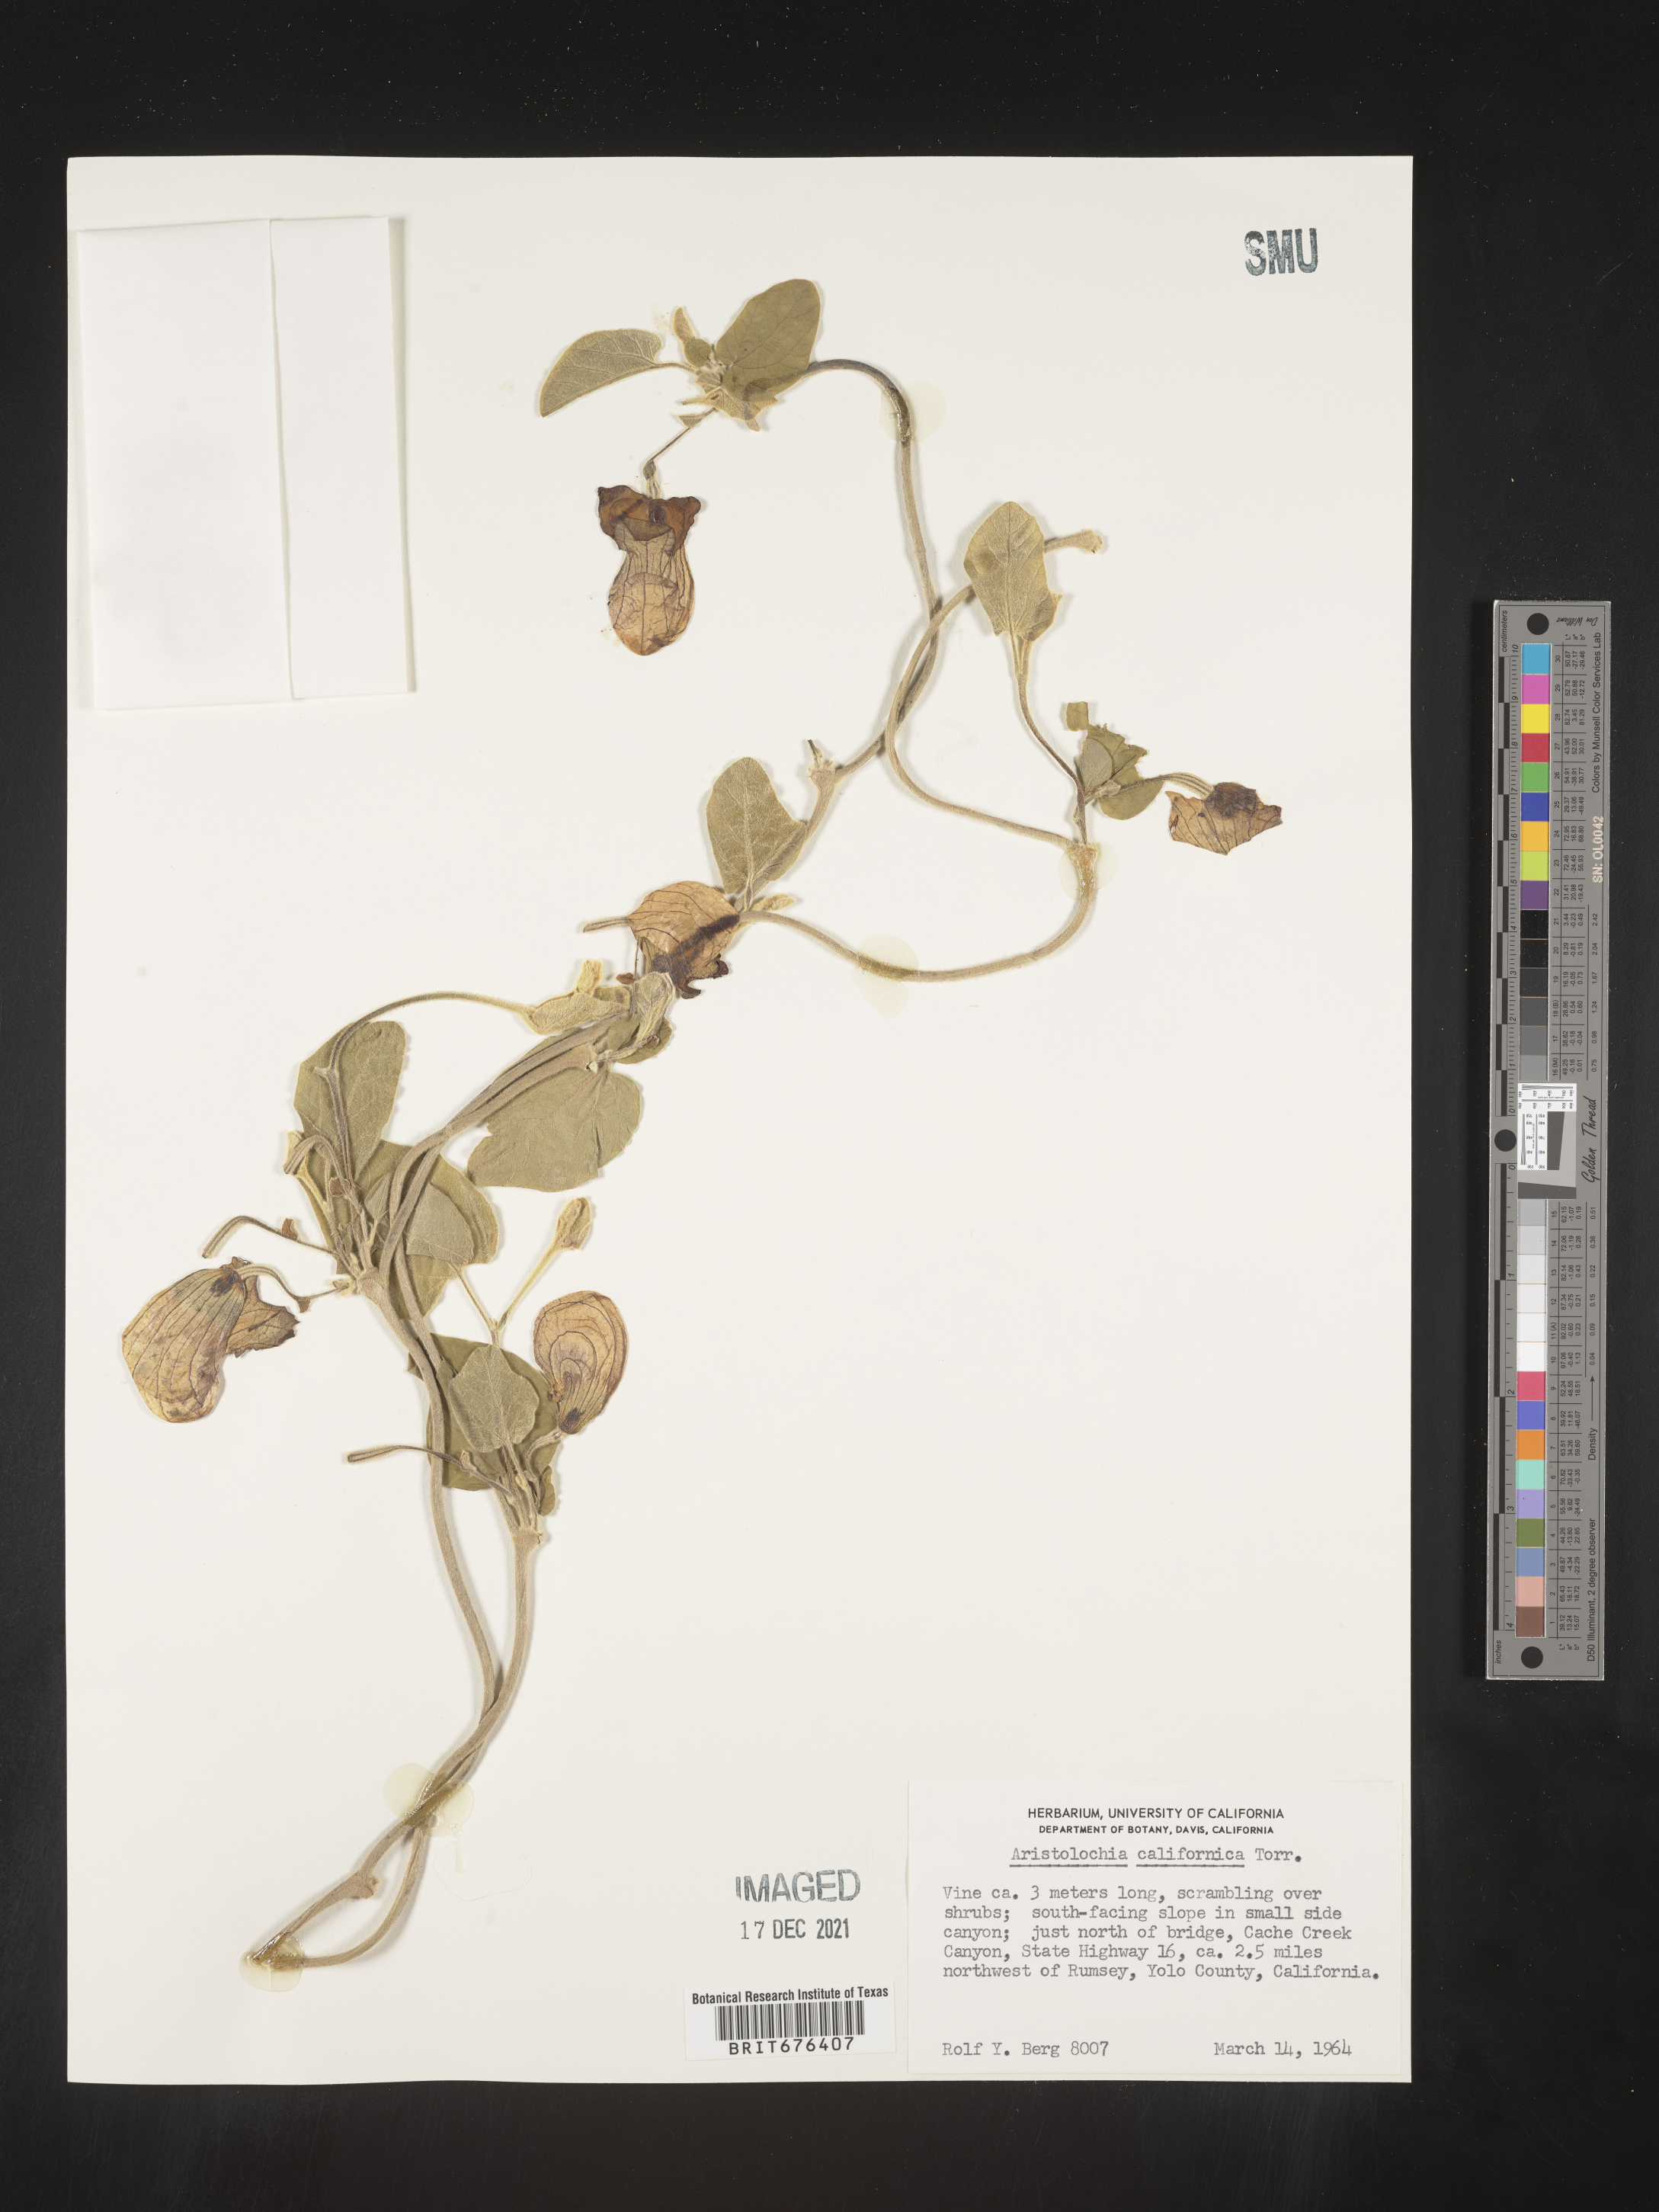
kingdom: Plantae
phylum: Tracheophyta
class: Magnoliopsida
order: Piperales
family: Aristolochiaceae
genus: Aristolochia
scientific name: Aristolochia
